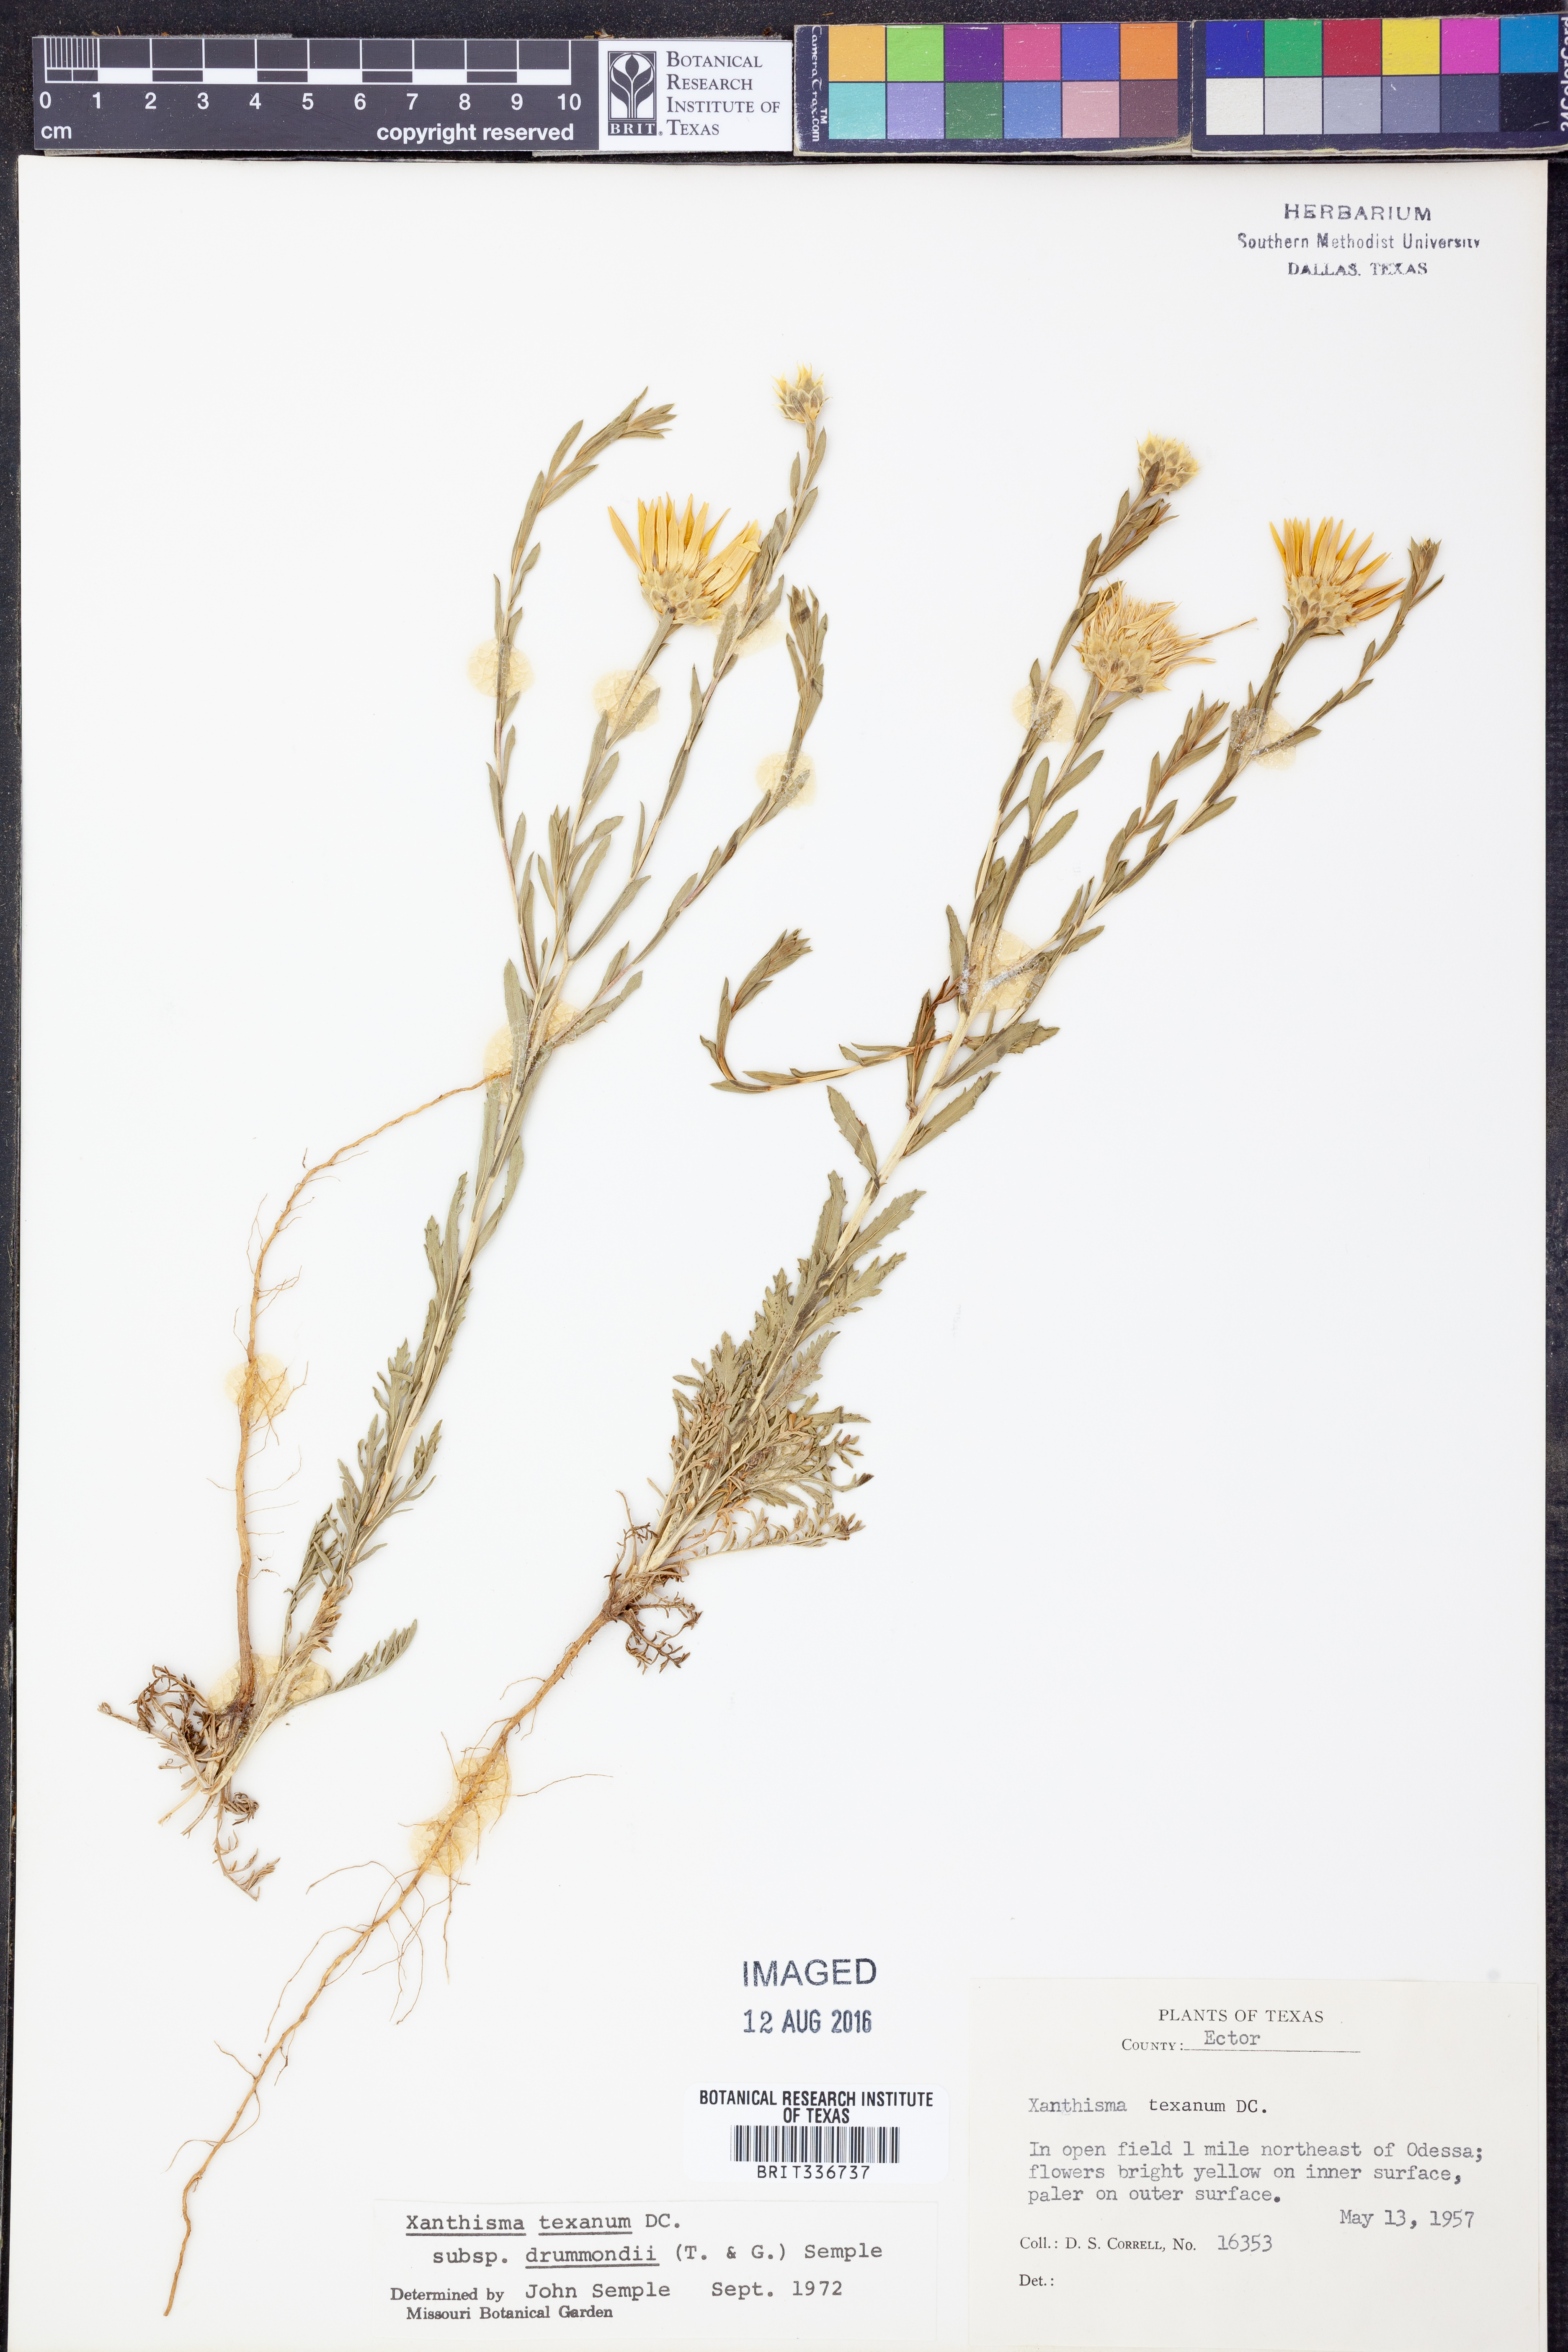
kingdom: Plantae
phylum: Tracheophyta
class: Magnoliopsida
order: Asterales
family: Asteraceae
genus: Xanthisma
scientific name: Xanthisma texanum
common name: Texas sleepy daisy
